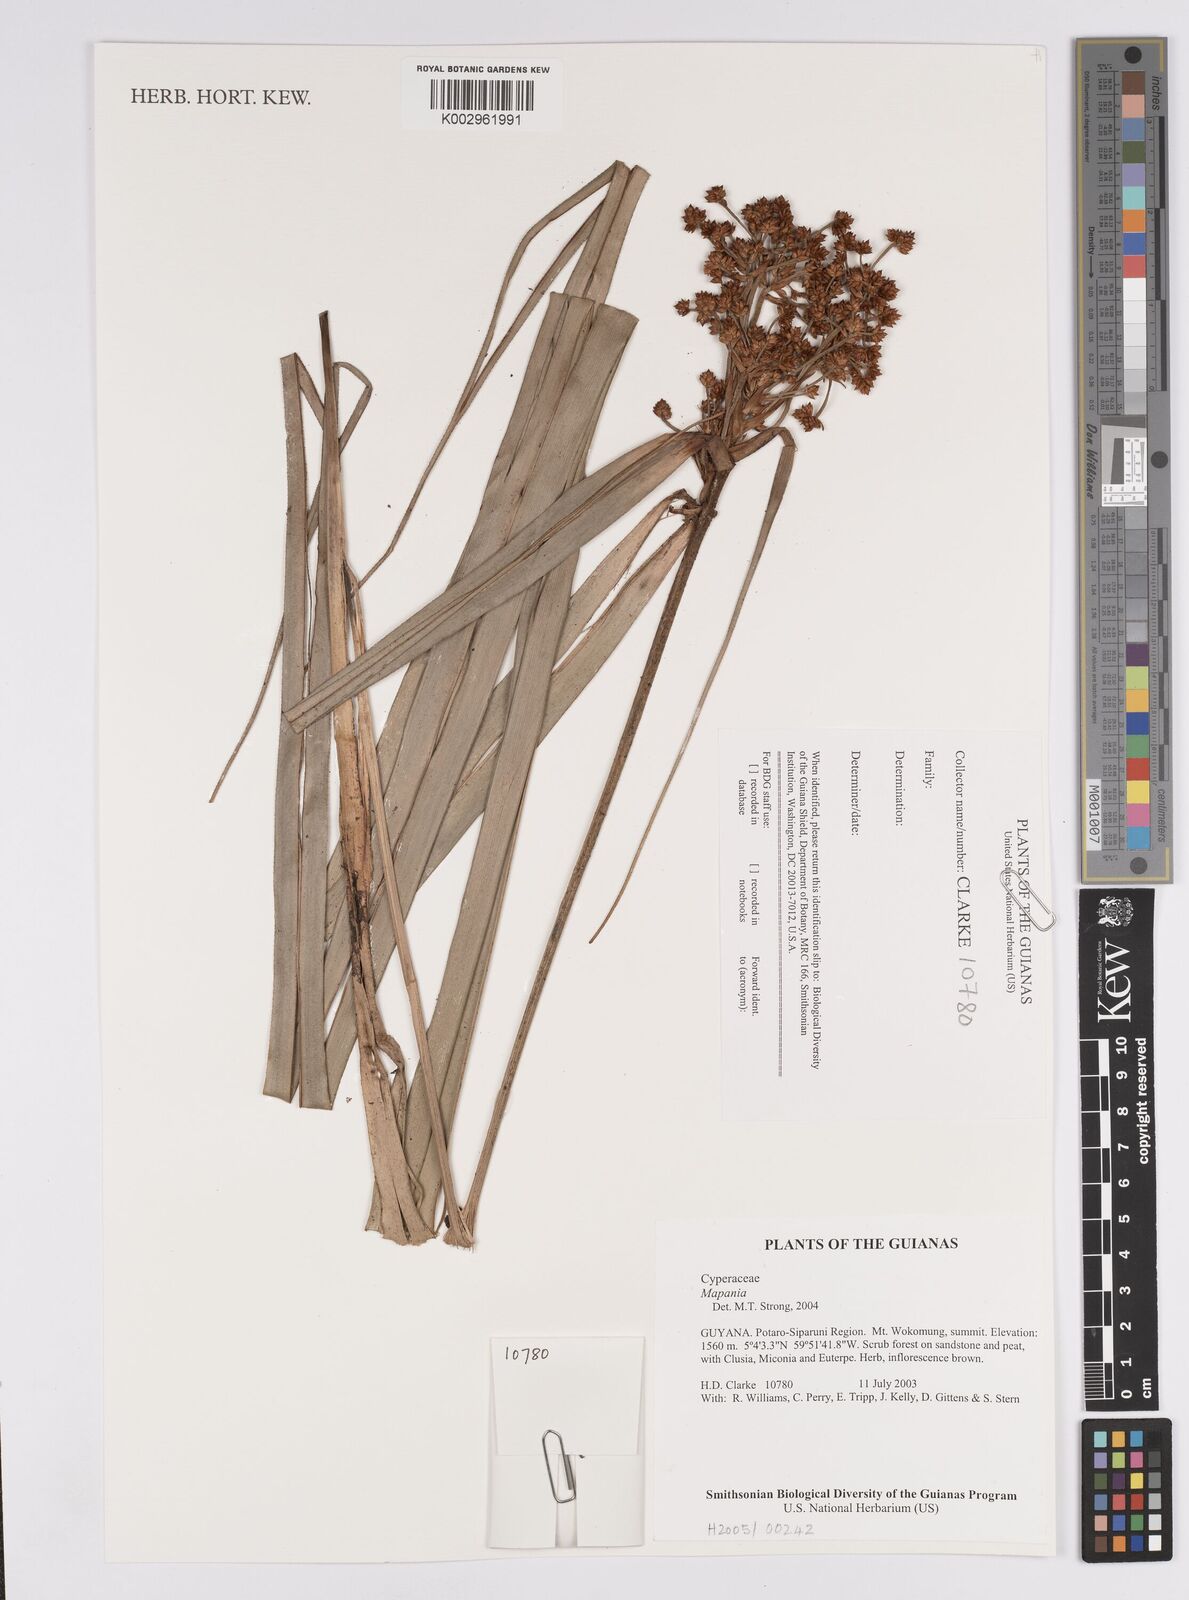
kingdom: Plantae
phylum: Tracheophyta
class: Liliopsida
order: Poales
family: Cyperaceae
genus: Mapania
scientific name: Mapania
